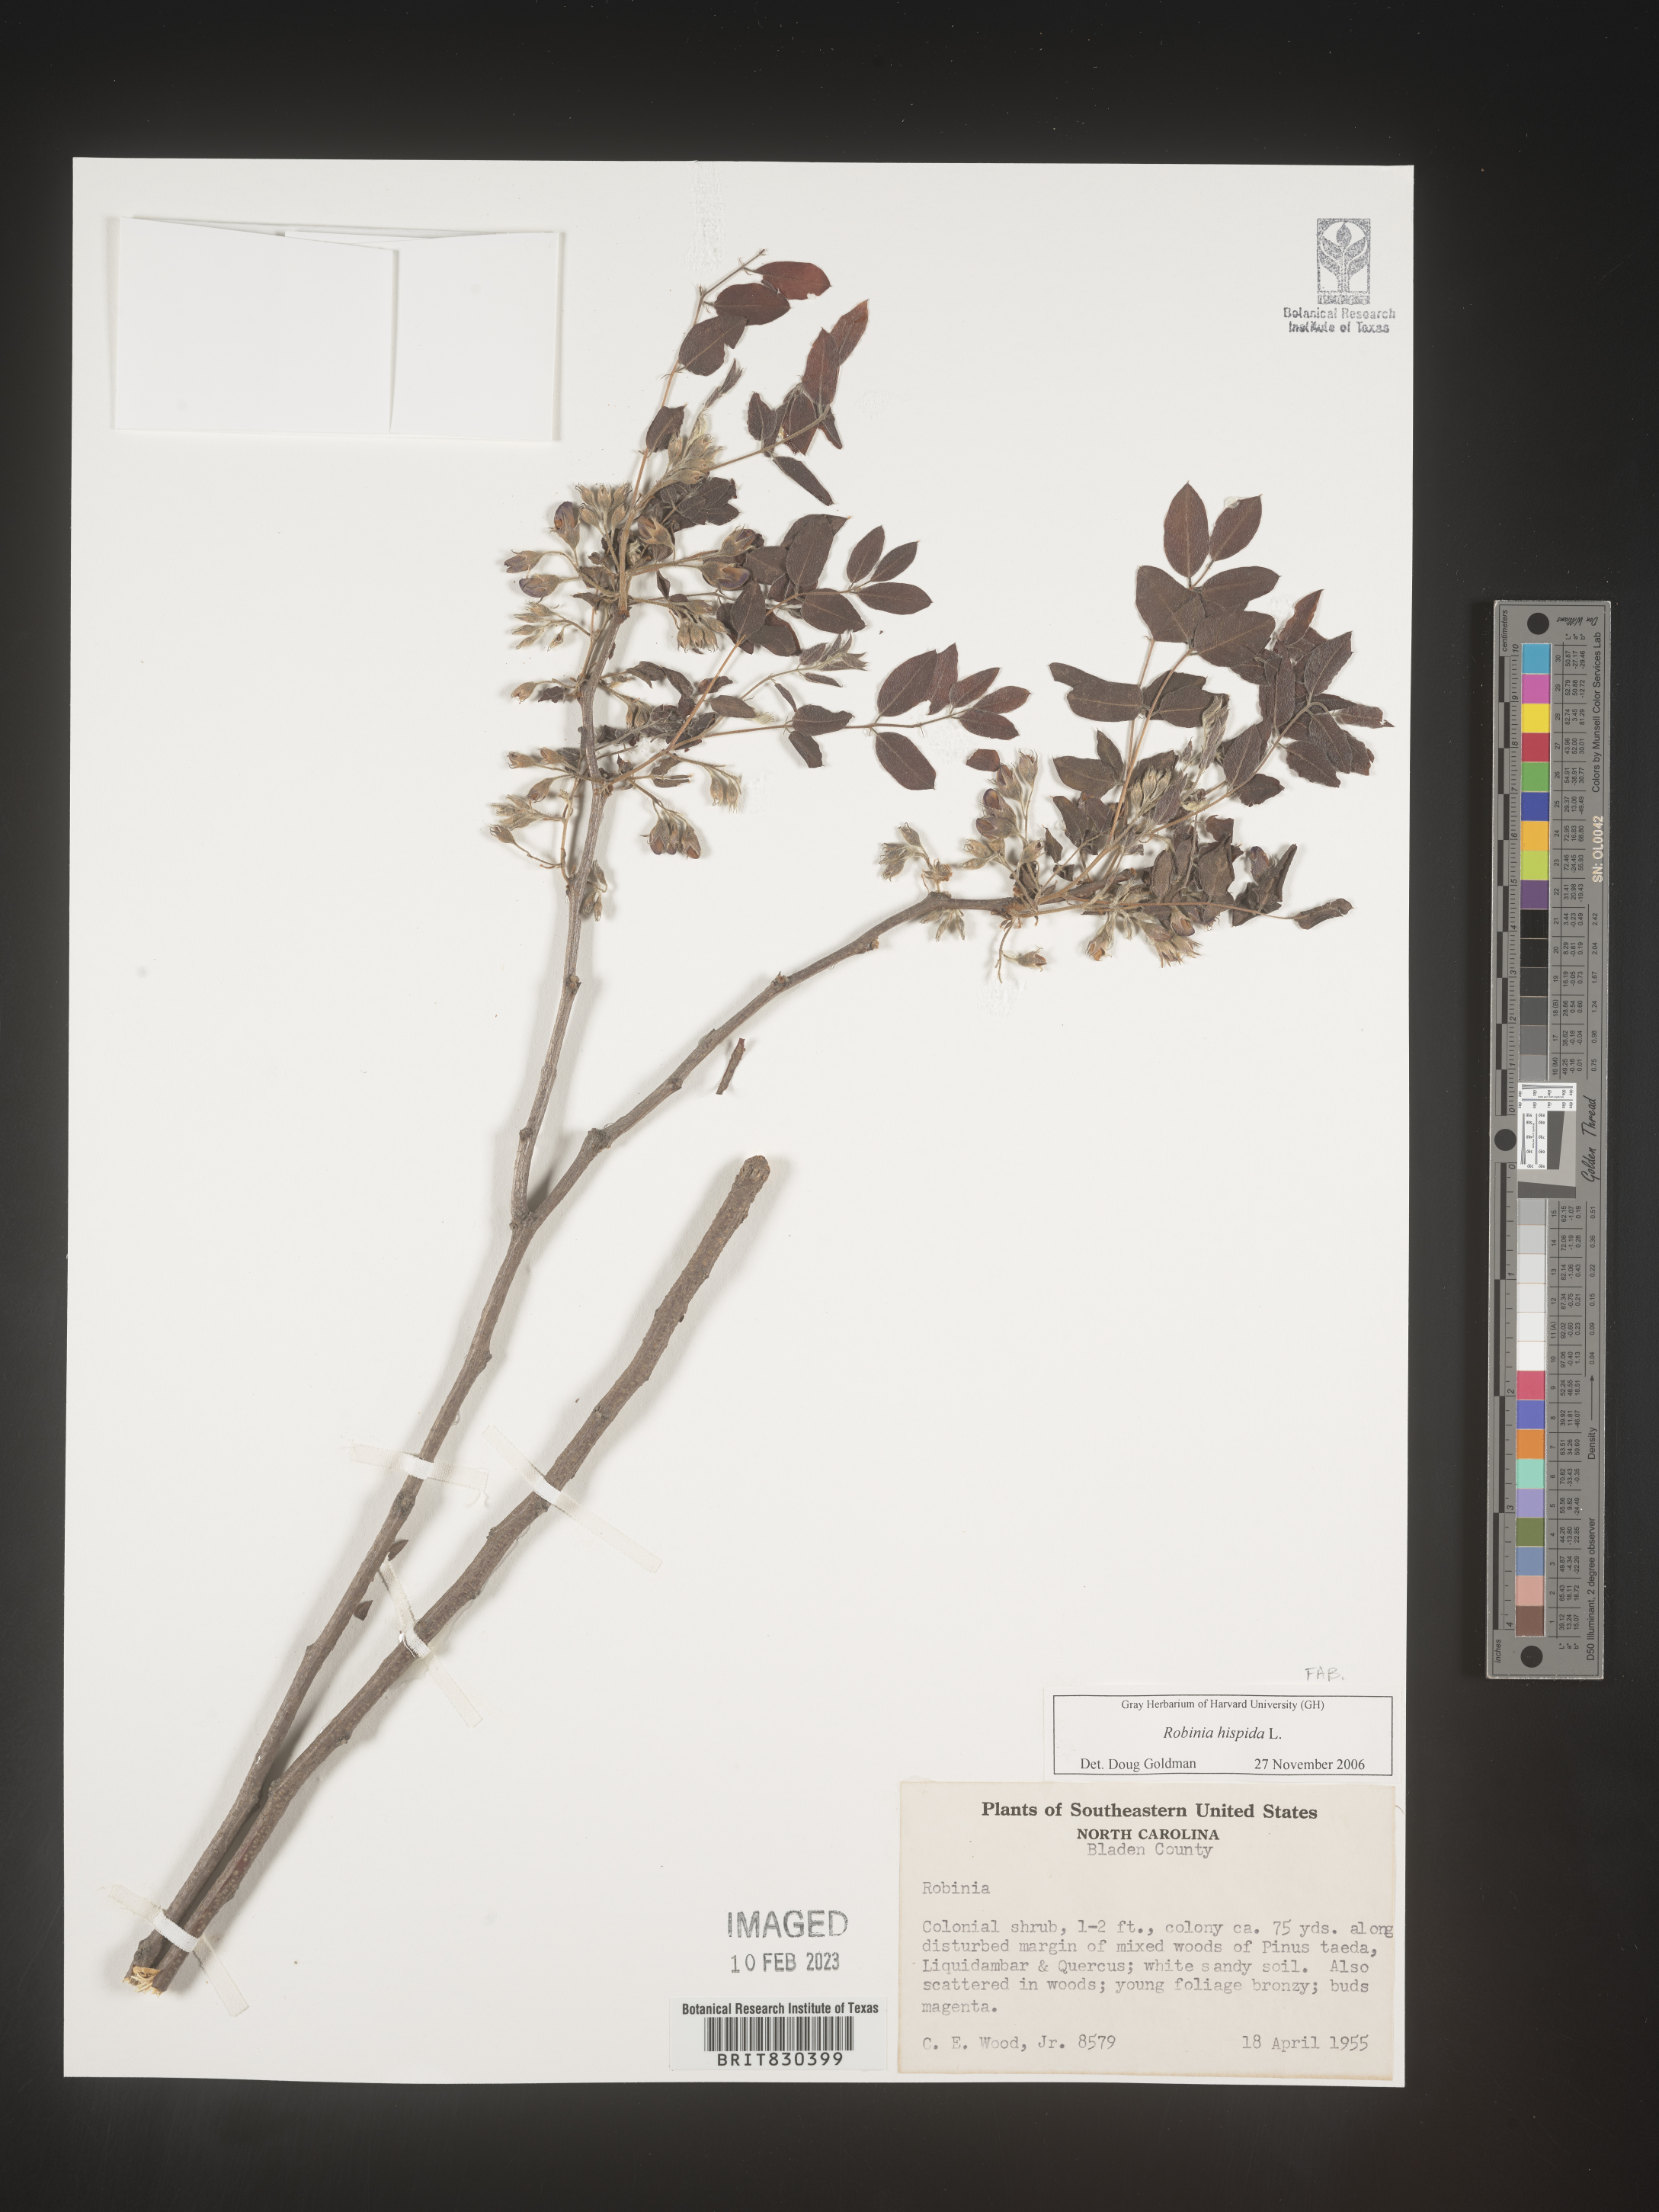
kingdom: Plantae
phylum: Tracheophyta
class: Magnoliopsida
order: Fabales
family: Fabaceae
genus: Robinia
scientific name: Robinia hispida
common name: Bristly locust
